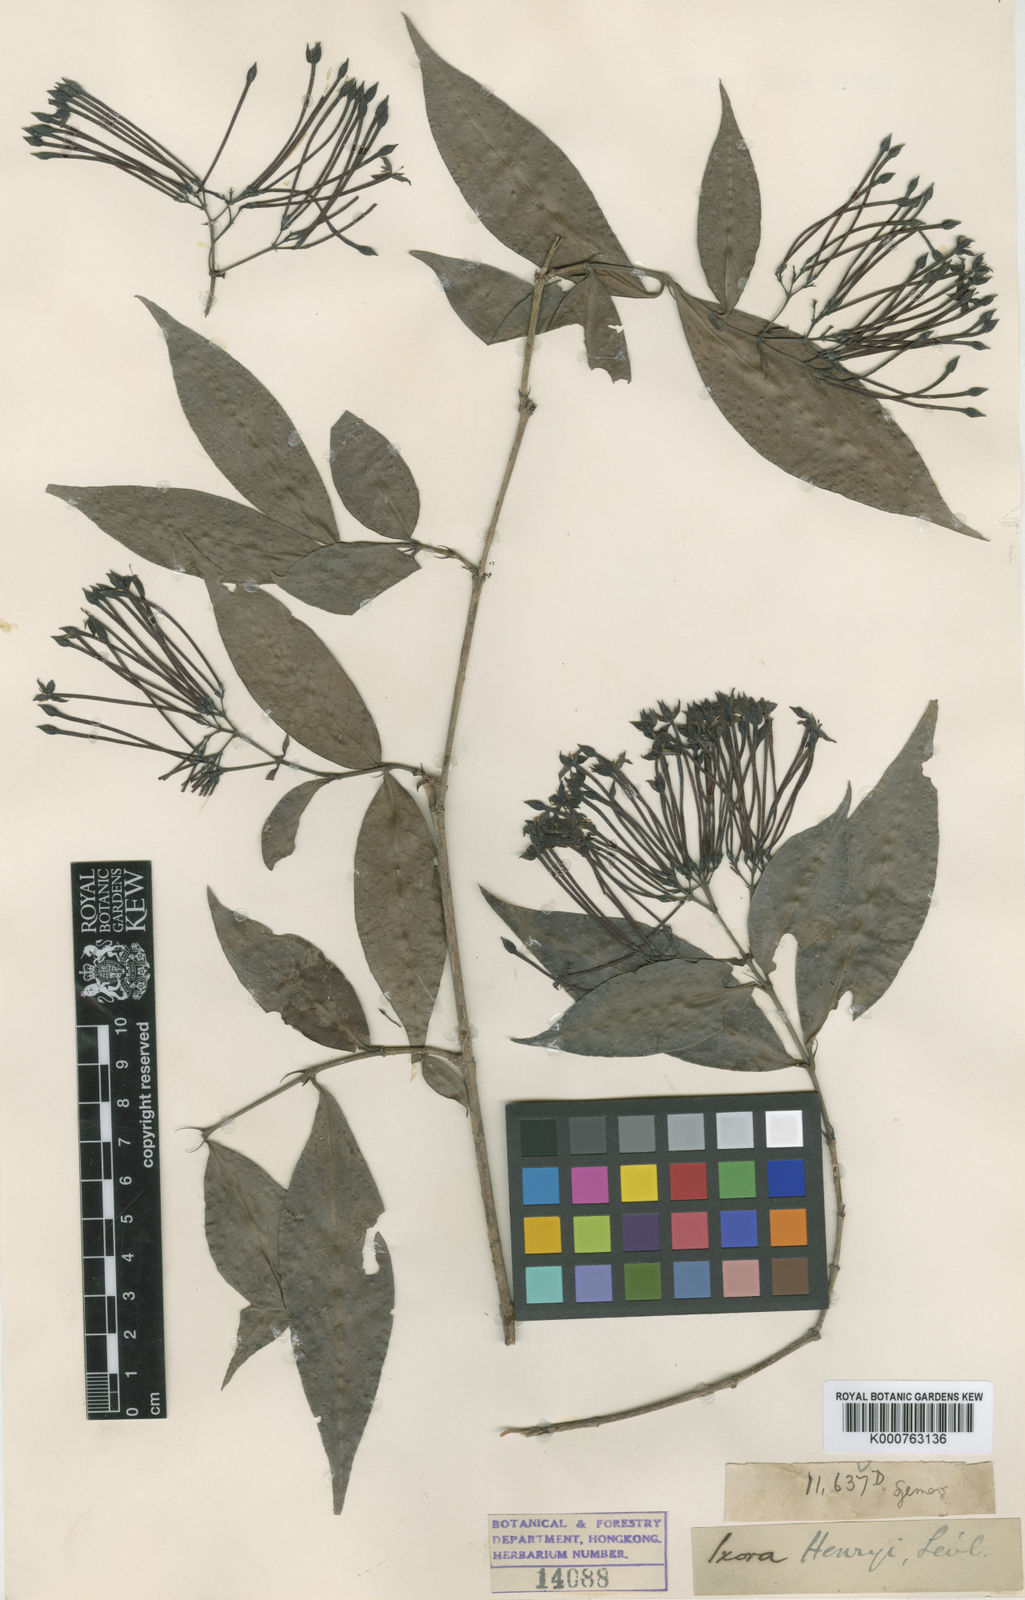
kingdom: Plantae
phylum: Tracheophyta
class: Magnoliopsida
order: Gentianales
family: Rubiaceae
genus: Ixora
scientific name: Ixora
